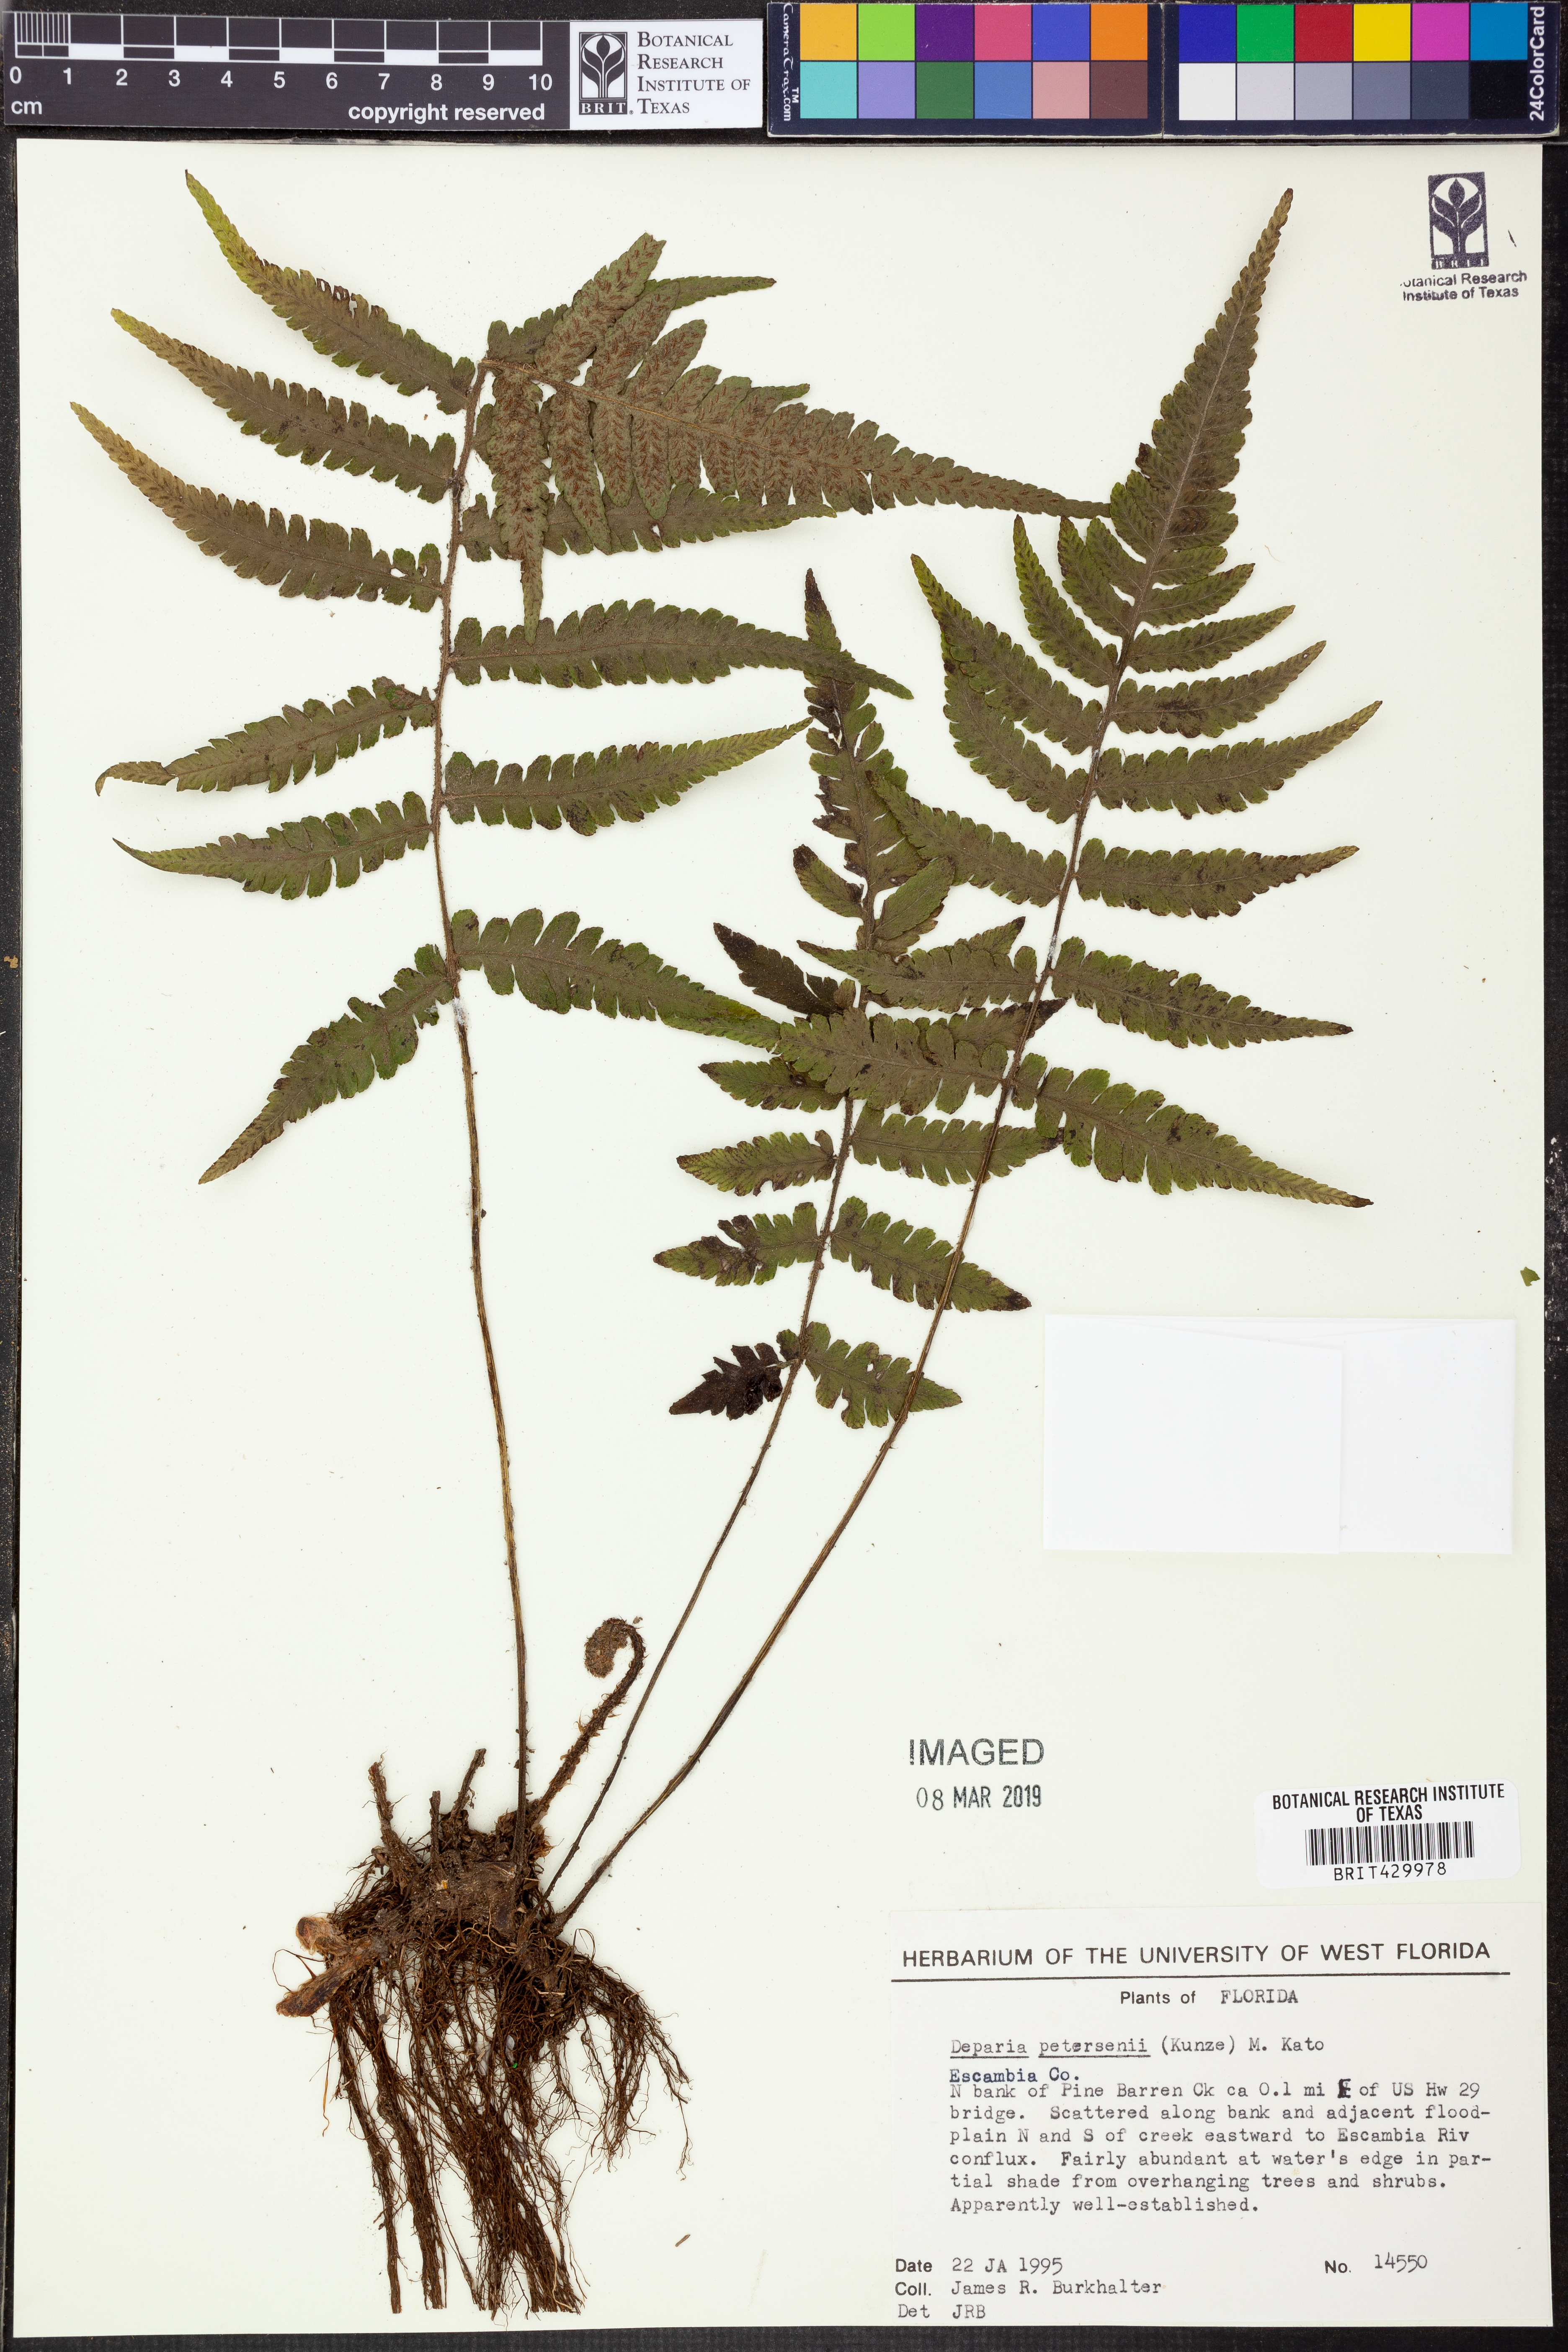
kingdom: Plantae
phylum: Tracheophyta
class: Polypodiopsida
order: Polypodiales
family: Athyriaceae
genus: Deparia
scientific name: Deparia petersenii
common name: Japanese false spleenwort
